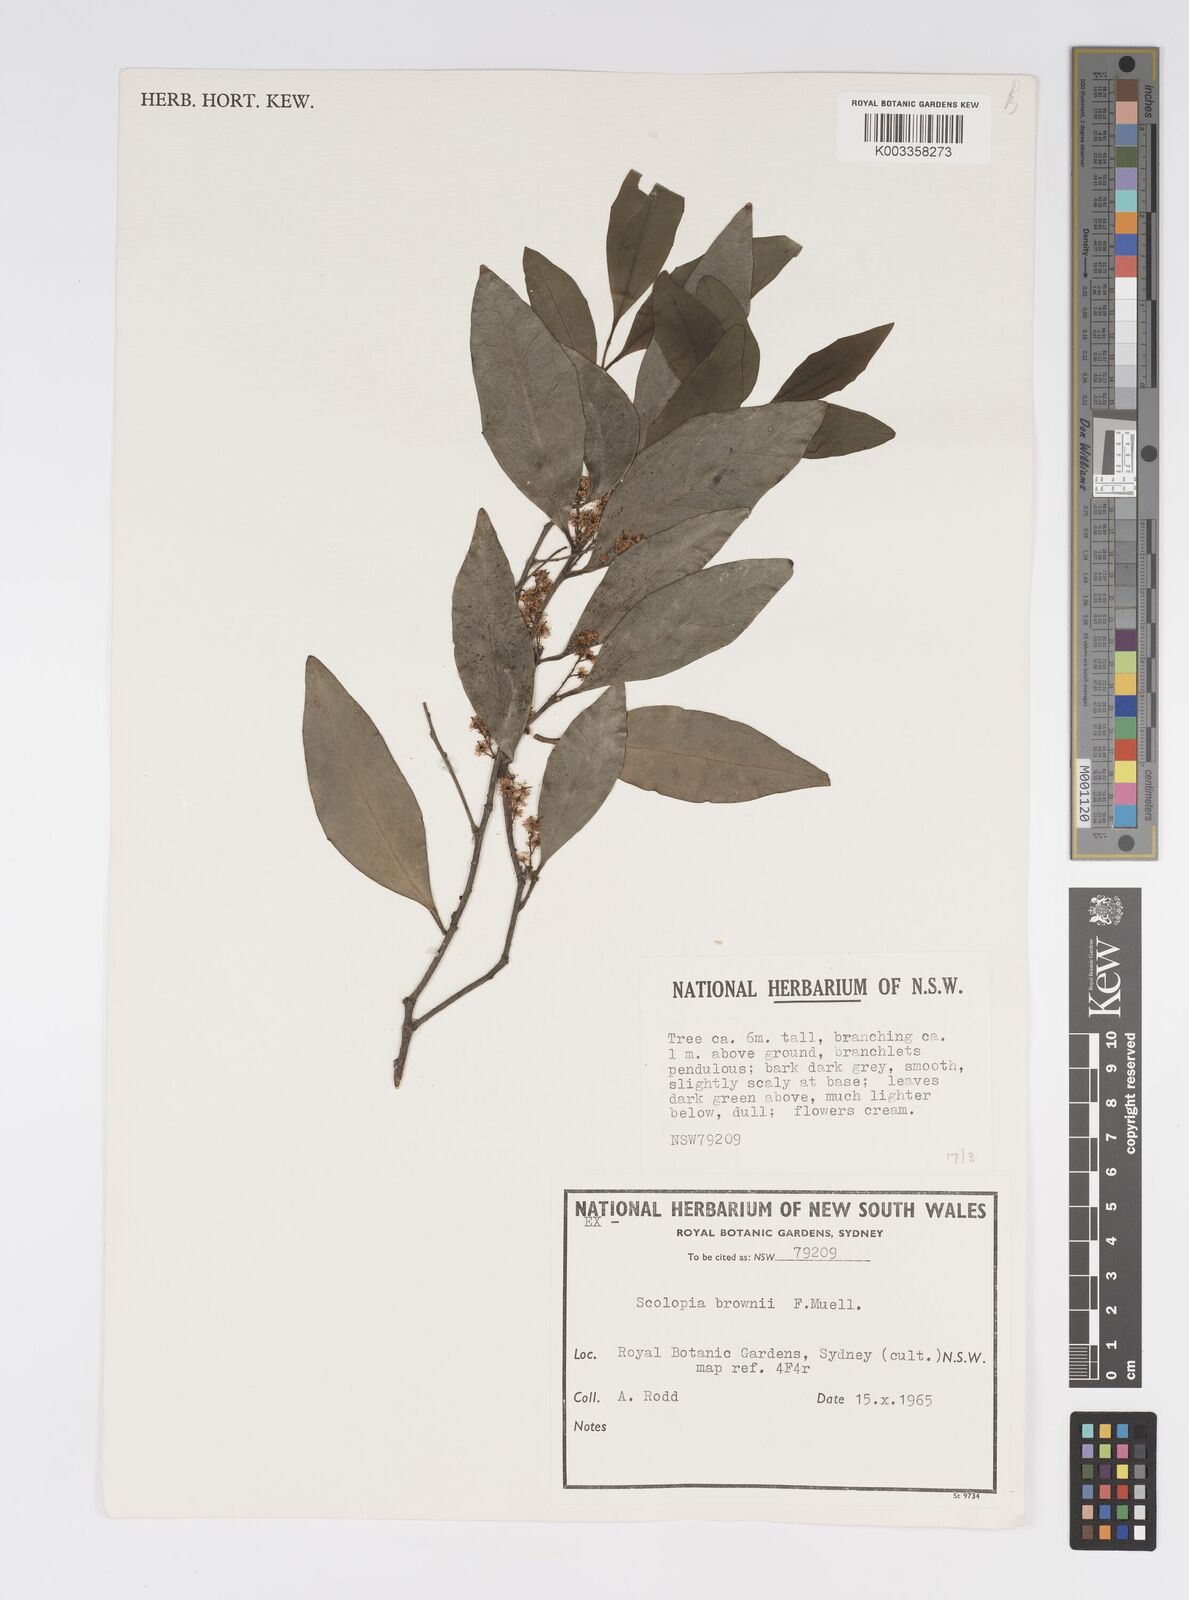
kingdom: Plantae
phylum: Tracheophyta
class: Magnoliopsida
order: Malpighiales
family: Salicaceae
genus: Scolopia
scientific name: Scolopia braunii
